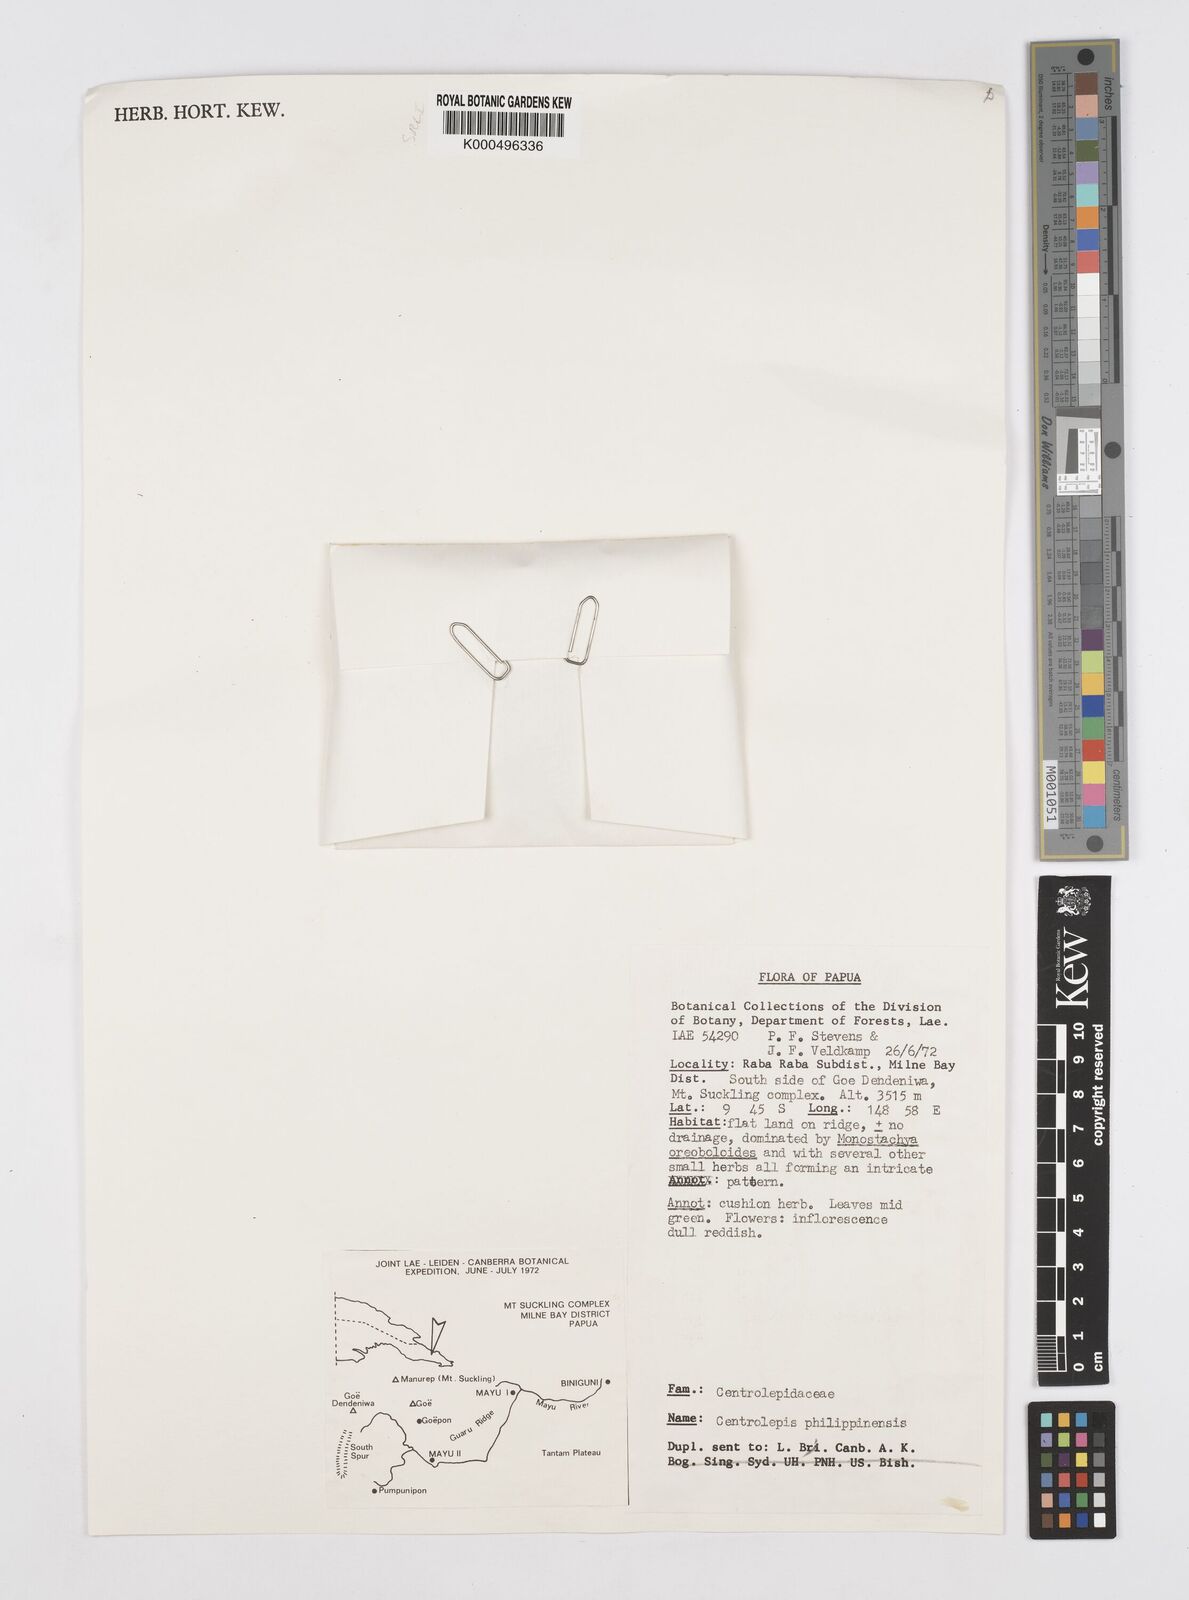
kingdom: Plantae
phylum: Tracheophyta
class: Liliopsida
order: Poales
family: Restionaceae
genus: Centrolepis
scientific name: Centrolepis philippinensis
